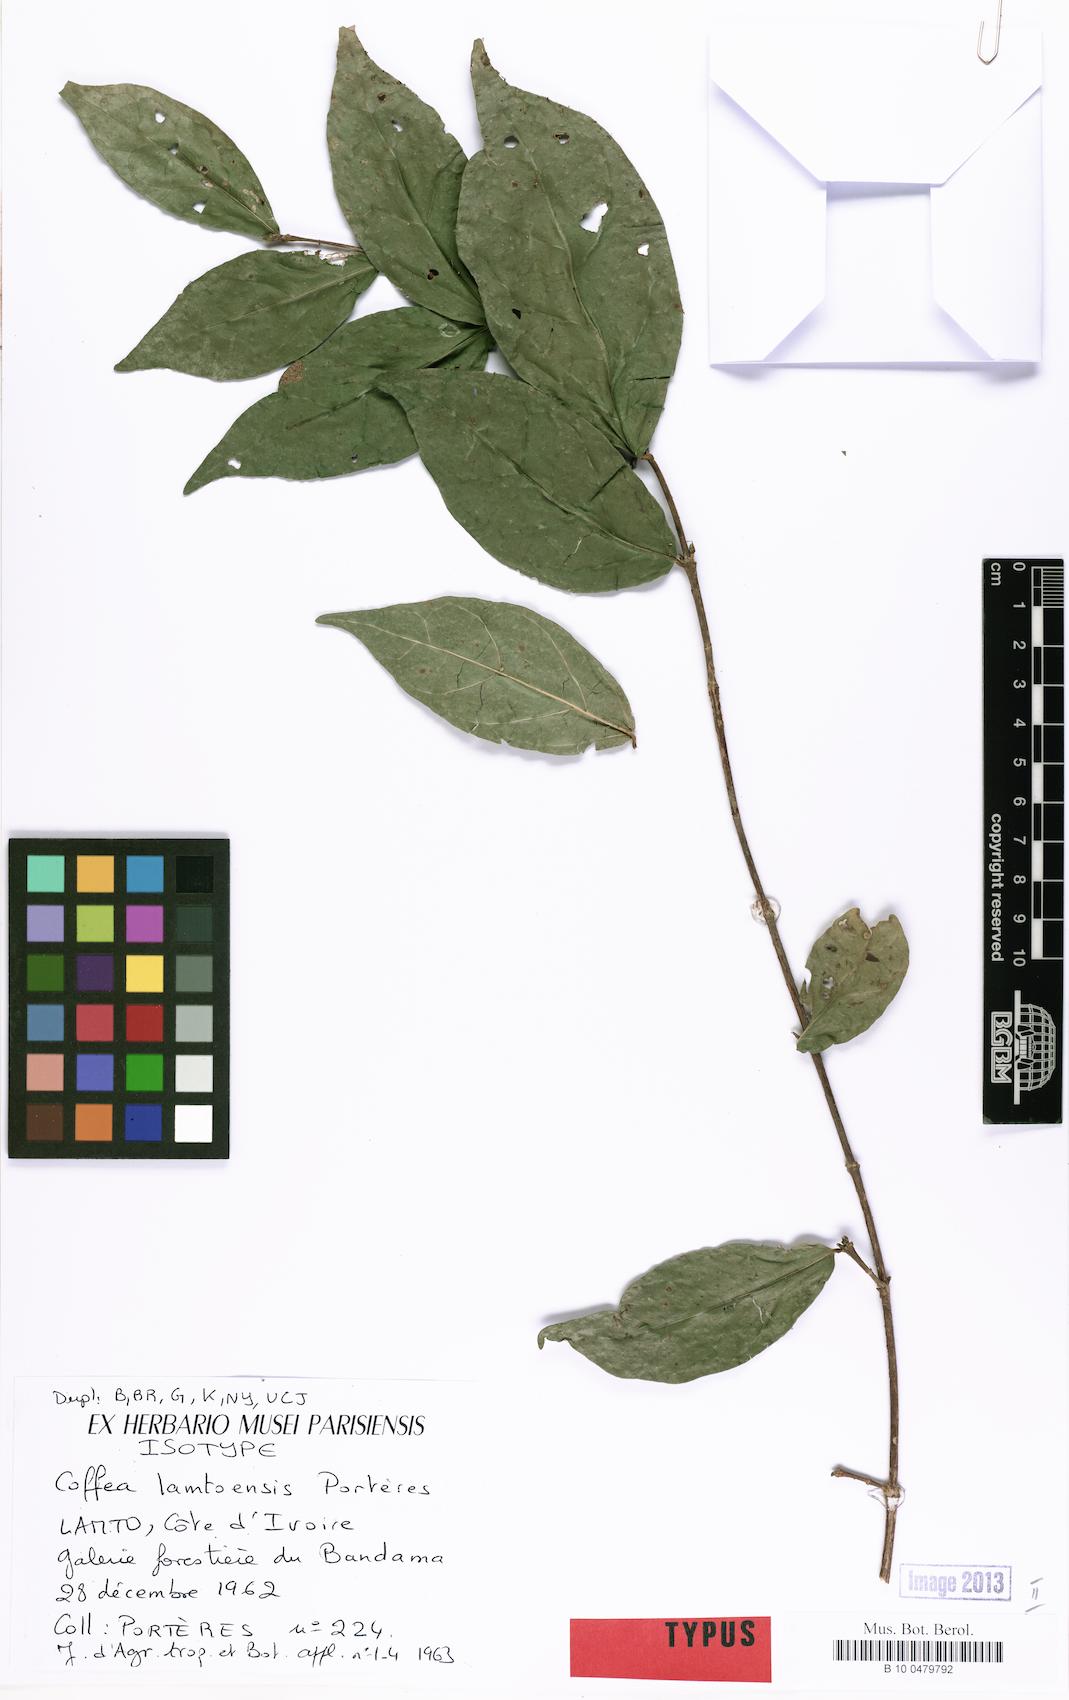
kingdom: Plantae
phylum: Tracheophyta
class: Magnoliopsida
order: Gentianales
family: Rubiaceae
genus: Coffea
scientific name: Coffea ebracteolata
